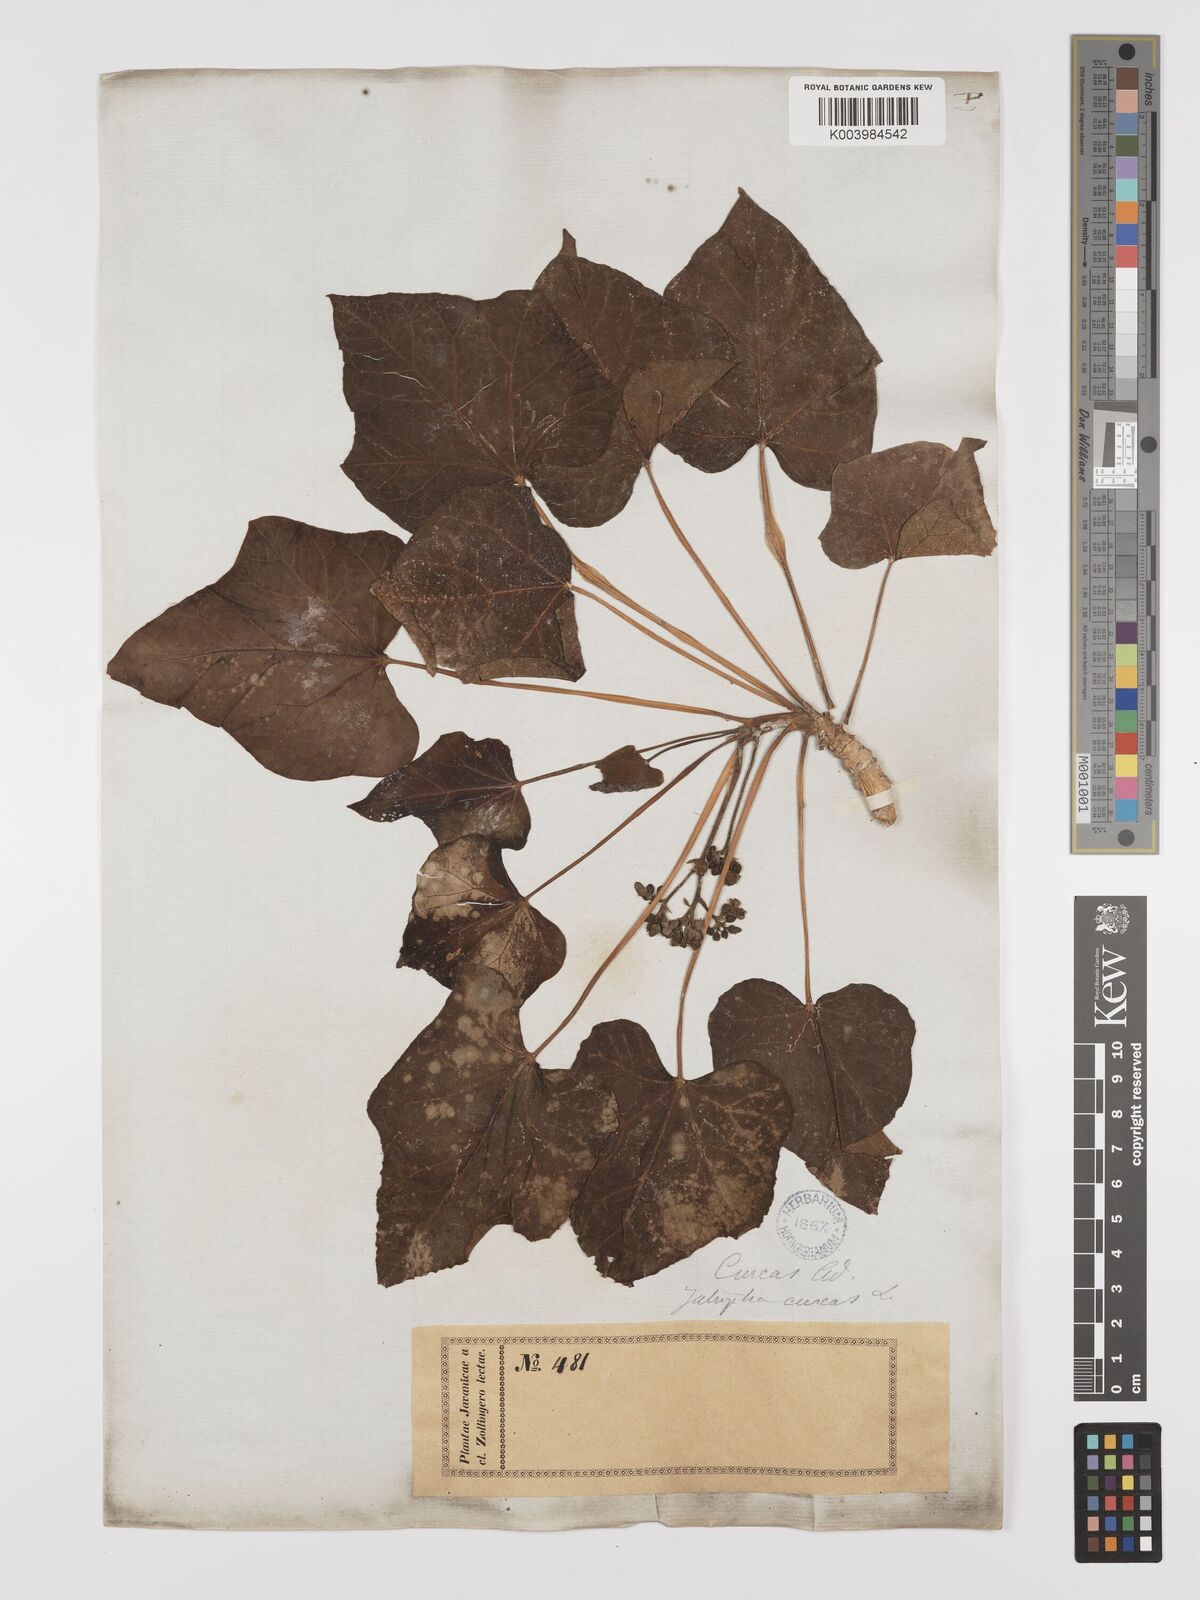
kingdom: Plantae
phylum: Tracheophyta
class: Magnoliopsida
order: Malpighiales
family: Euphorbiaceae
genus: Jatropha
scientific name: Jatropha curcas
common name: Barbados nut
